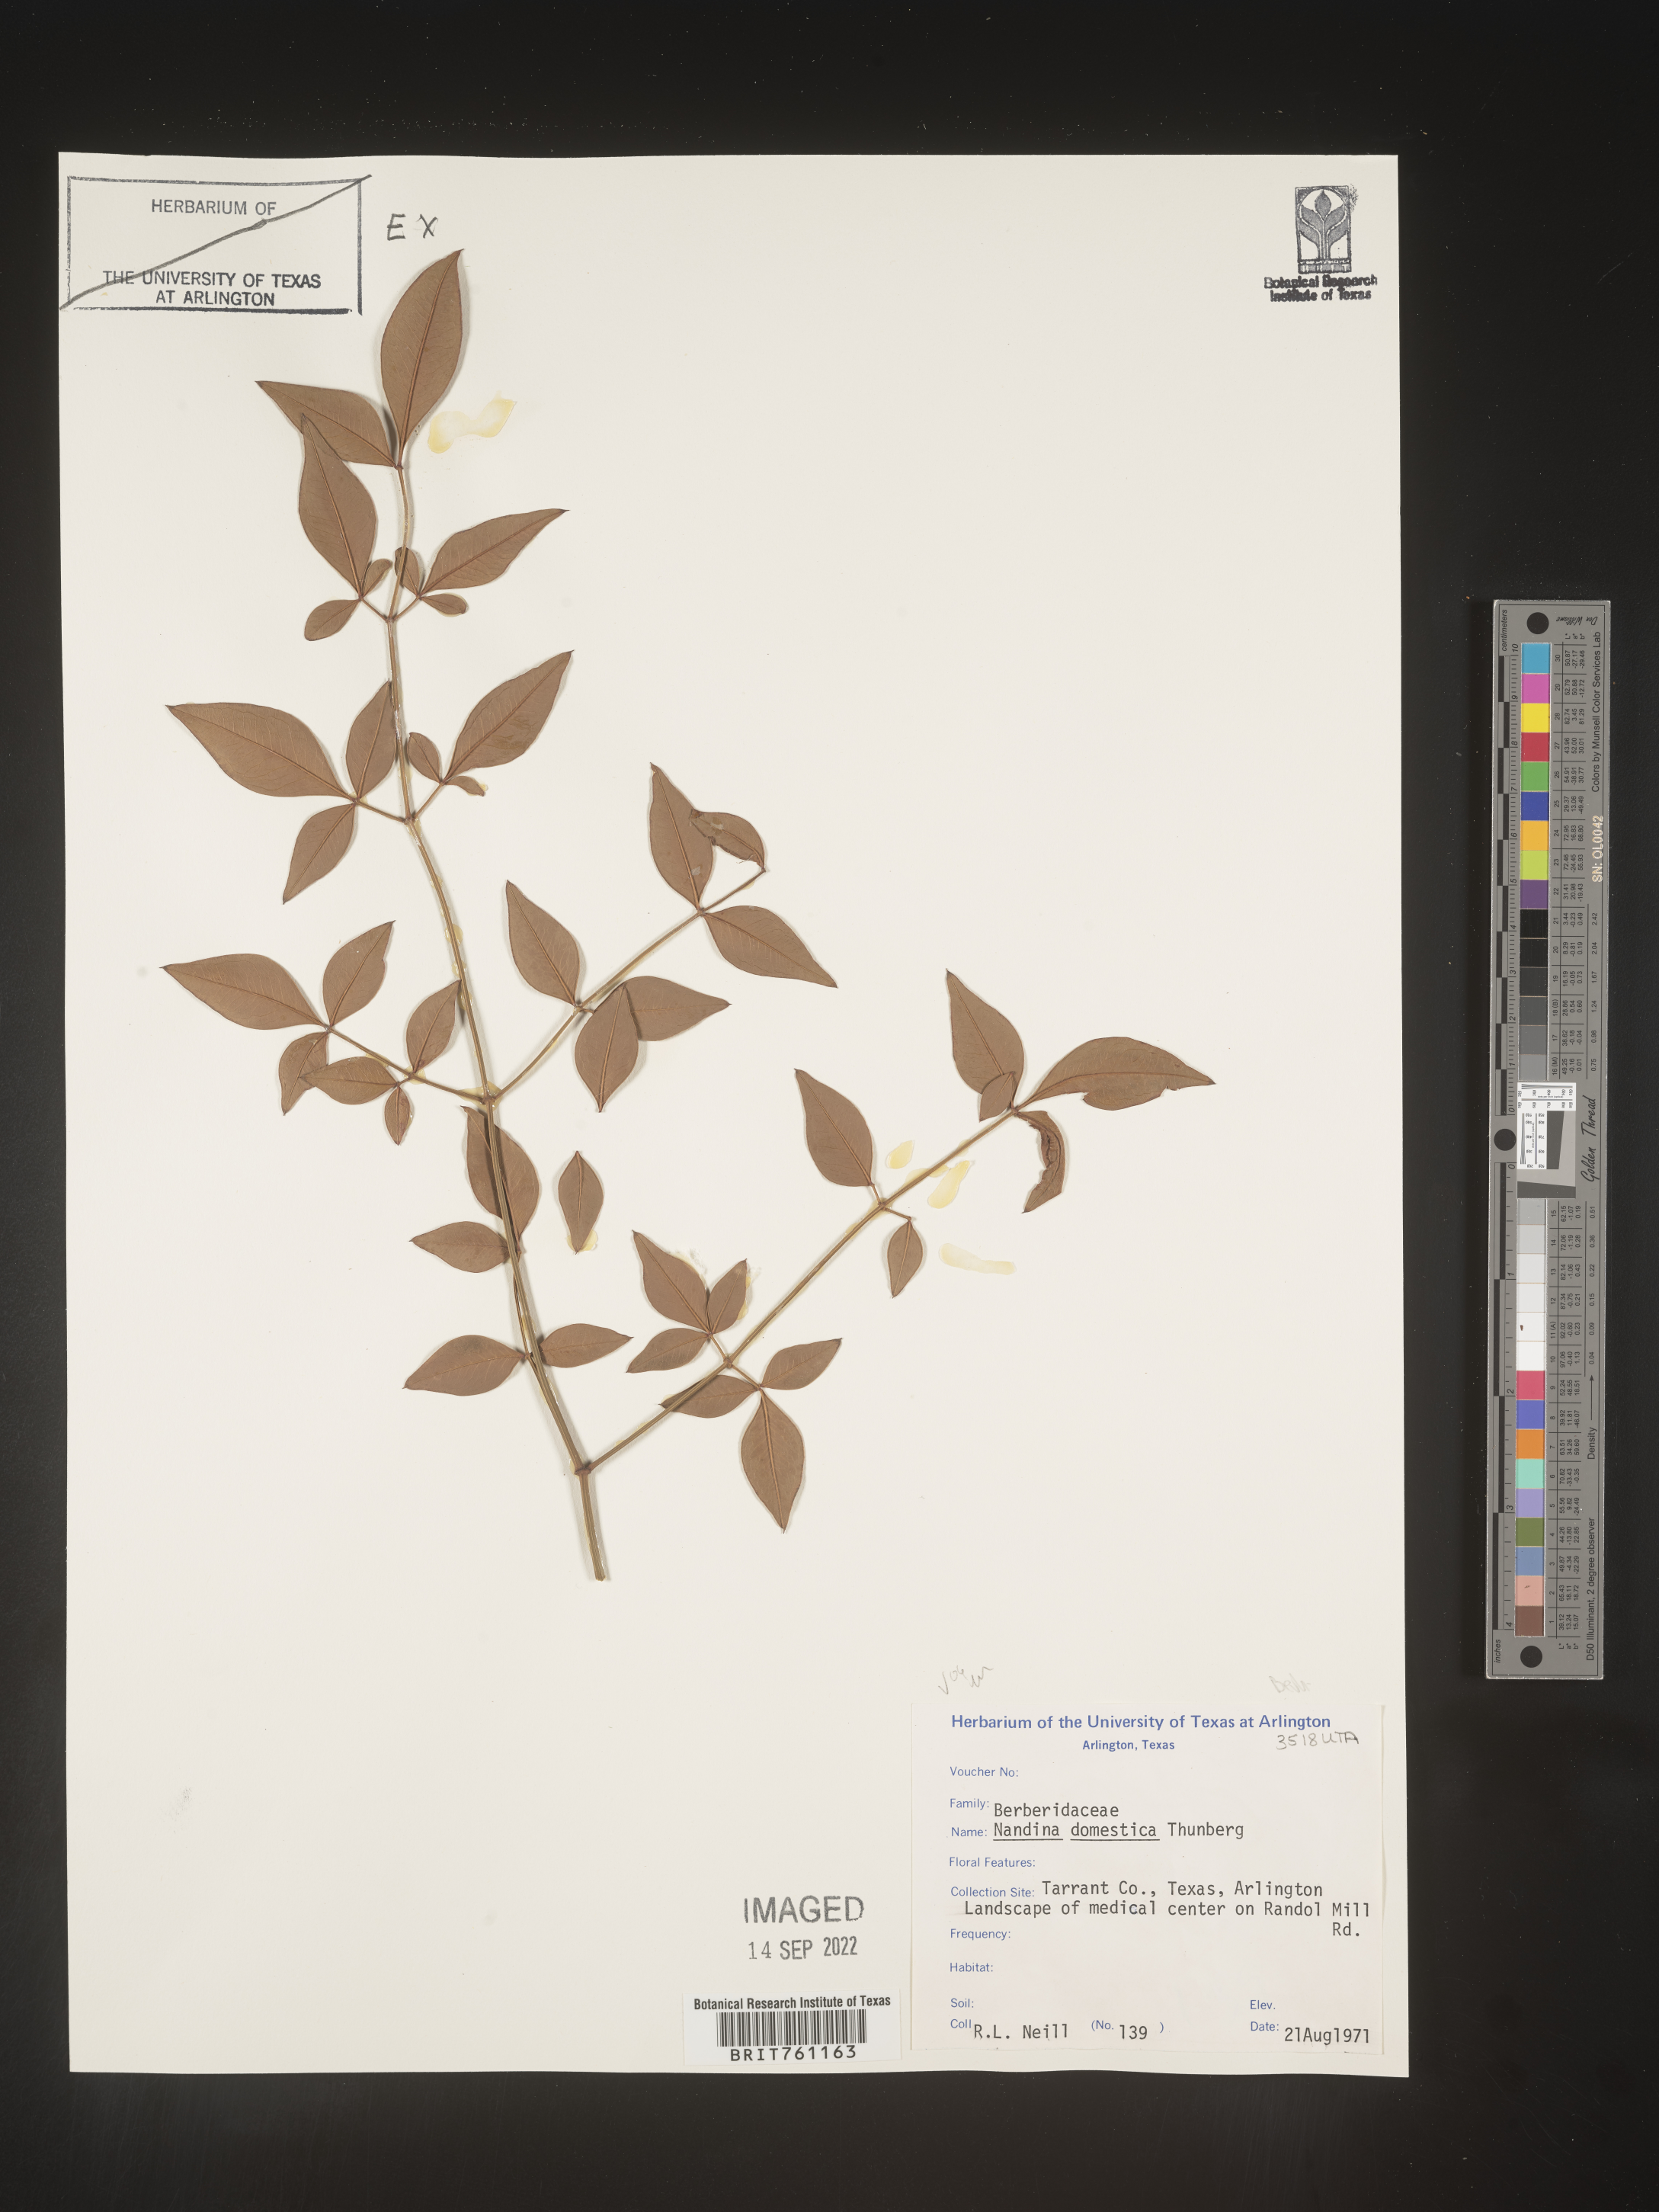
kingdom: Plantae
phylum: Tracheophyta
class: Magnoliopsida
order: Ranunculales
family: Berberidaceae
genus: Nandina
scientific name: Nandina
